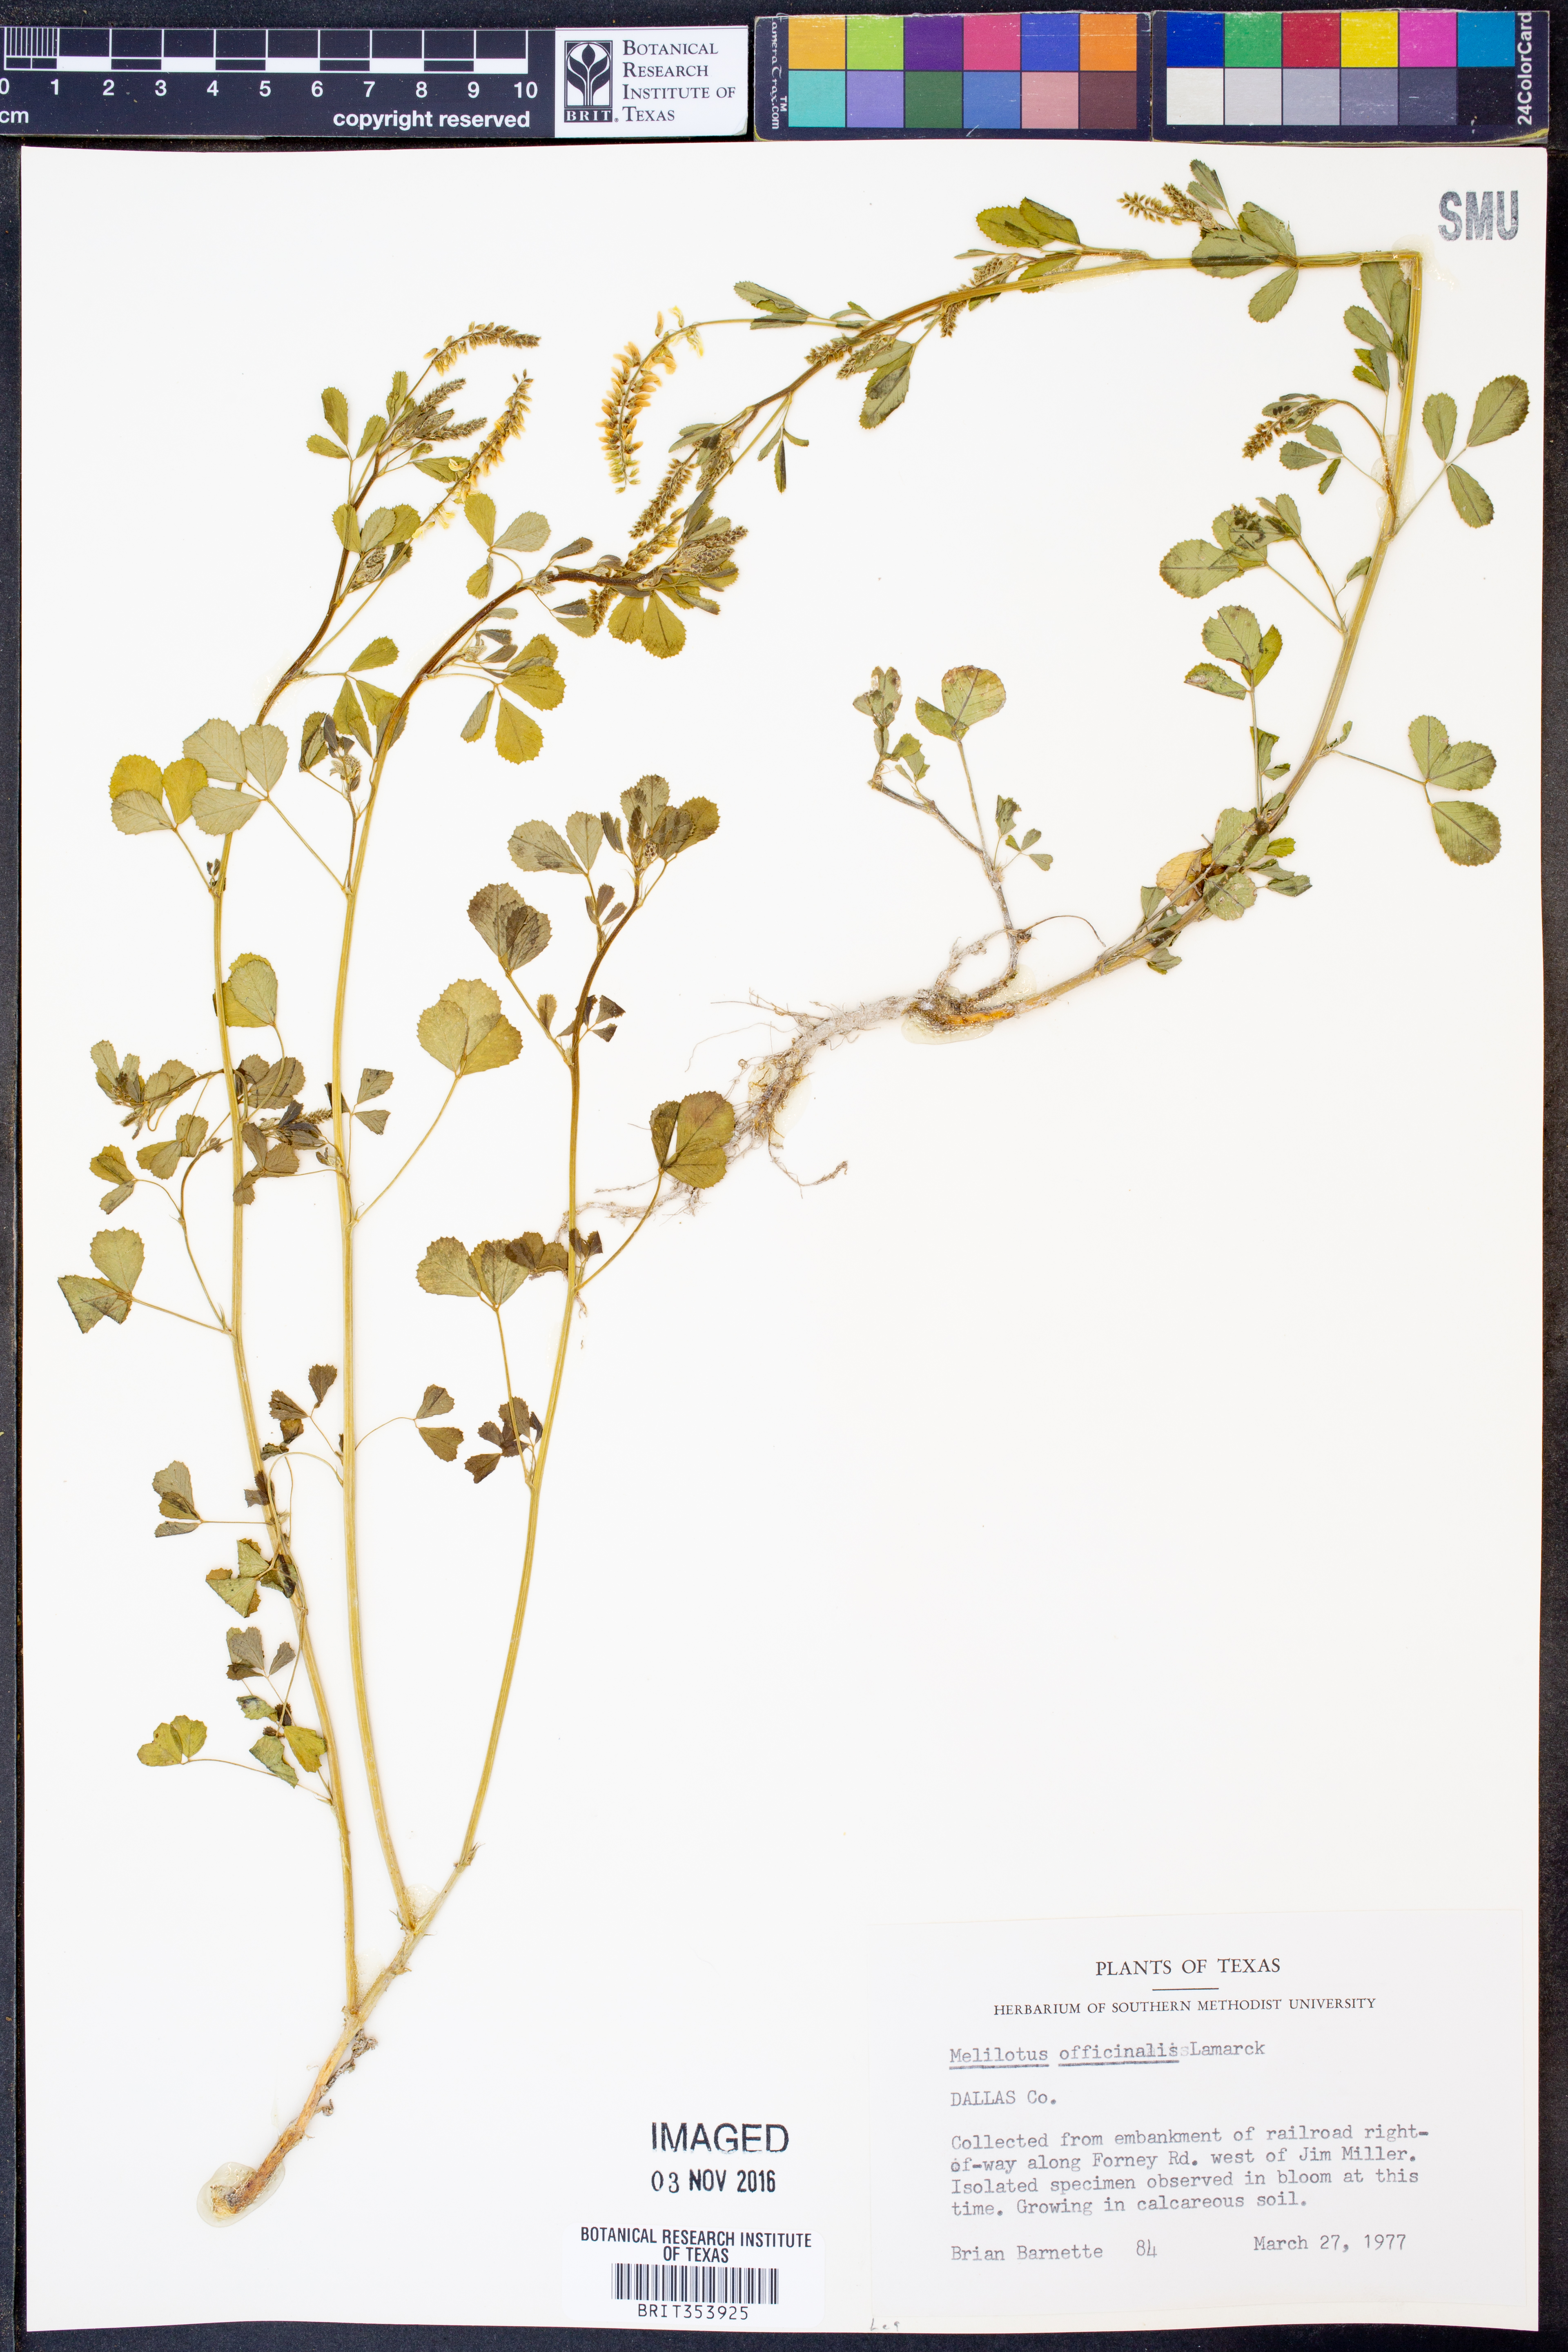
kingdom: Plantae
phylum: Tracheophyta
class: Magnoliopsida
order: Fabales
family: Fabaceae
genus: Melilotus
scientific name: Melilotus officinalis
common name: Sweetclover
